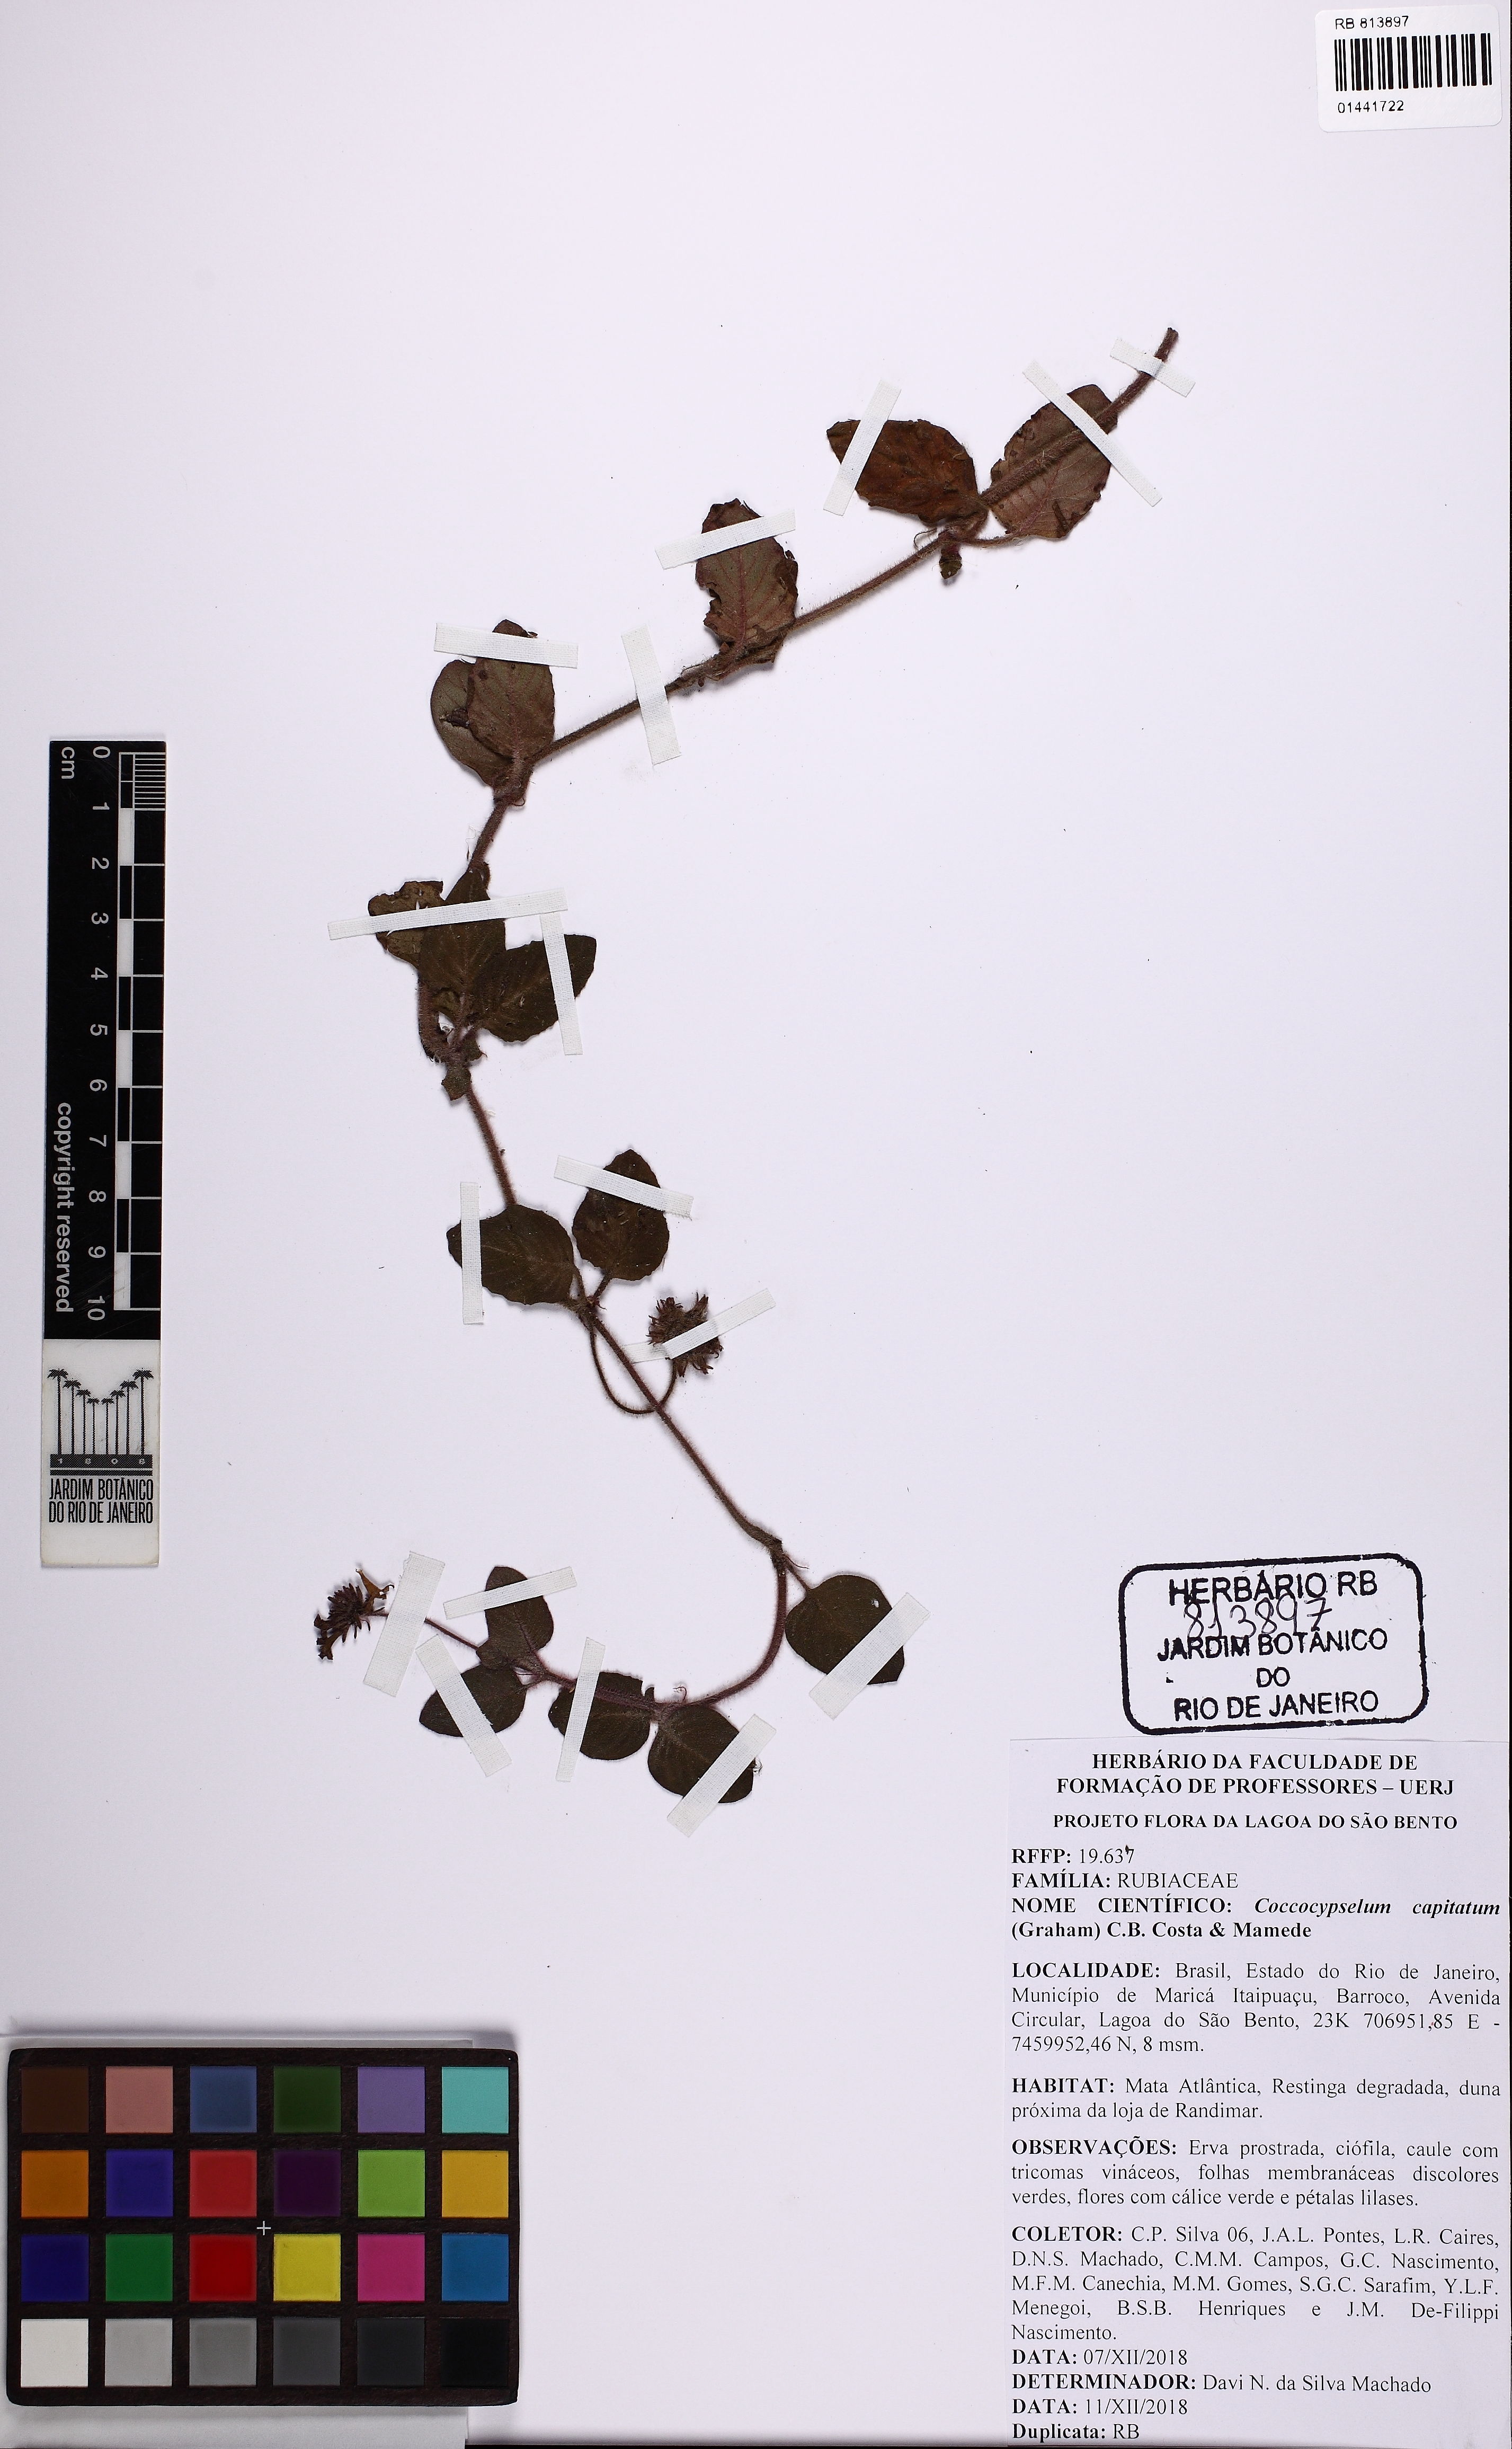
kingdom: Plantae
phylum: Tracheophyta
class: Magnoliopsida
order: Gentianales
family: Rubiaceae
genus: Coccocypselum
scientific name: Coccocypselum capitatum
